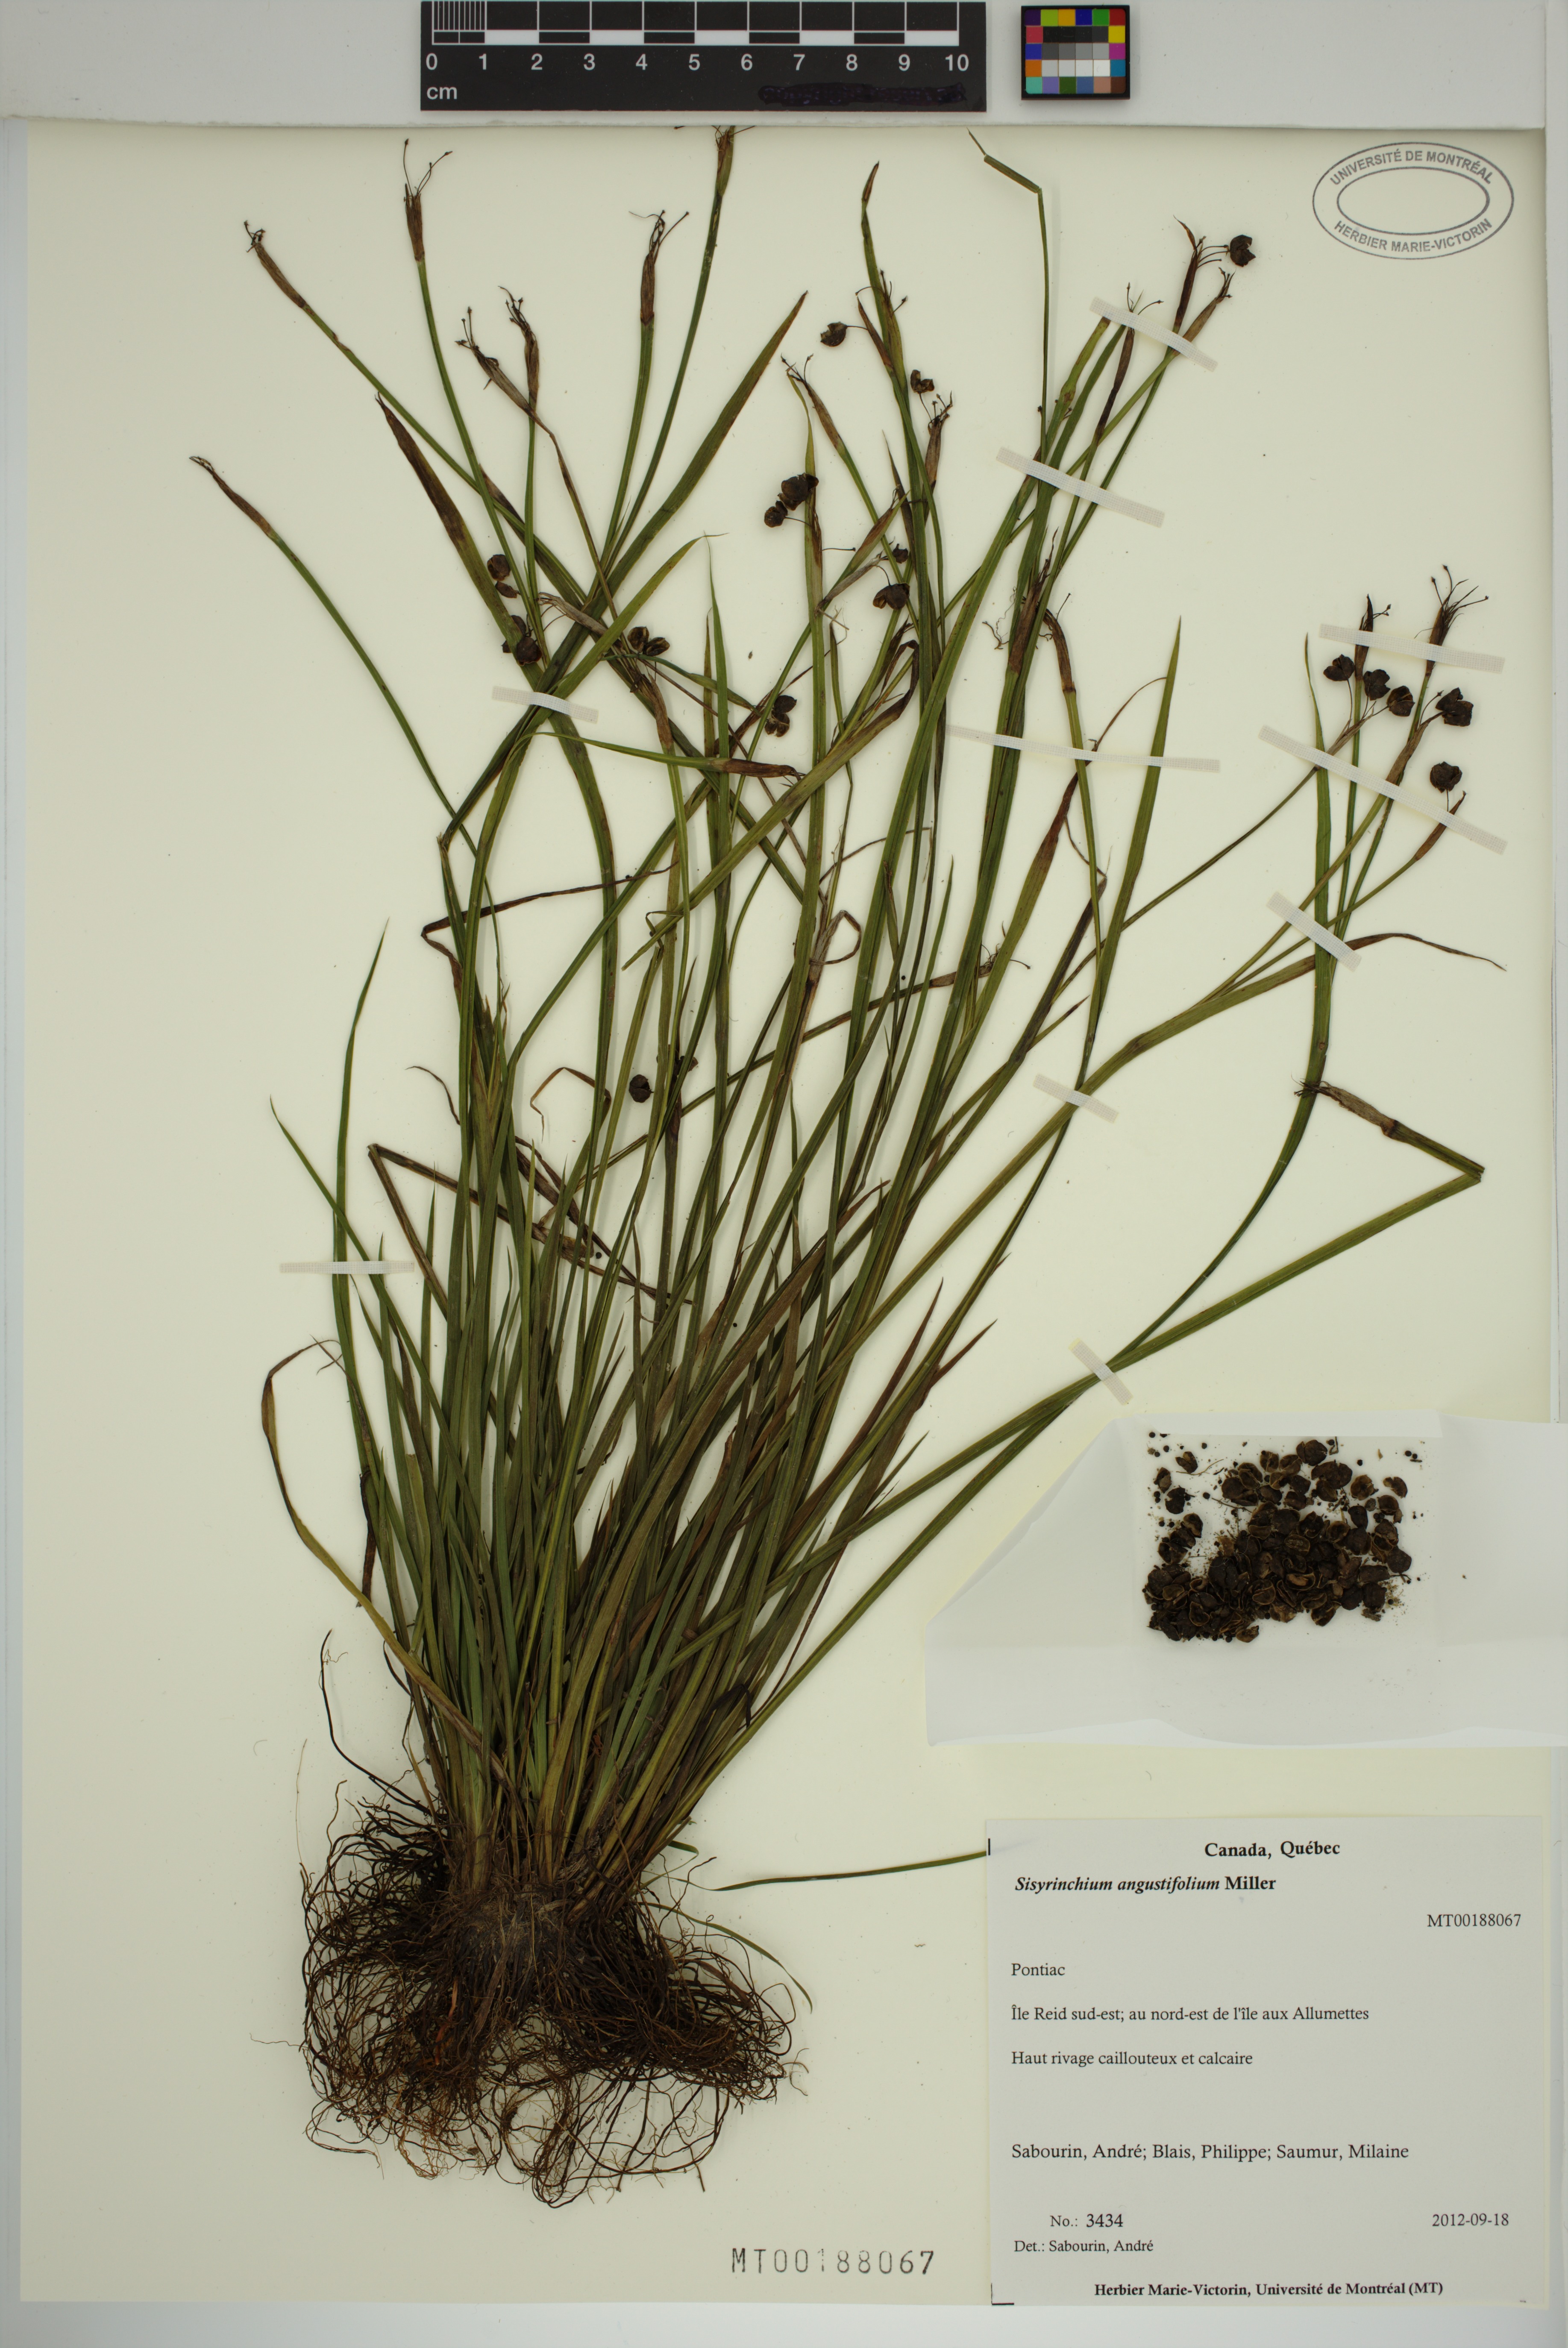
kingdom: Plantae
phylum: Tracheophyta
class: Liliopsida
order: Asparagales
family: Iridaceae
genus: Sisyrinchium
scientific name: Sisyrinchium angustifolium
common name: Narrow-leaf blue-eyed-grass
